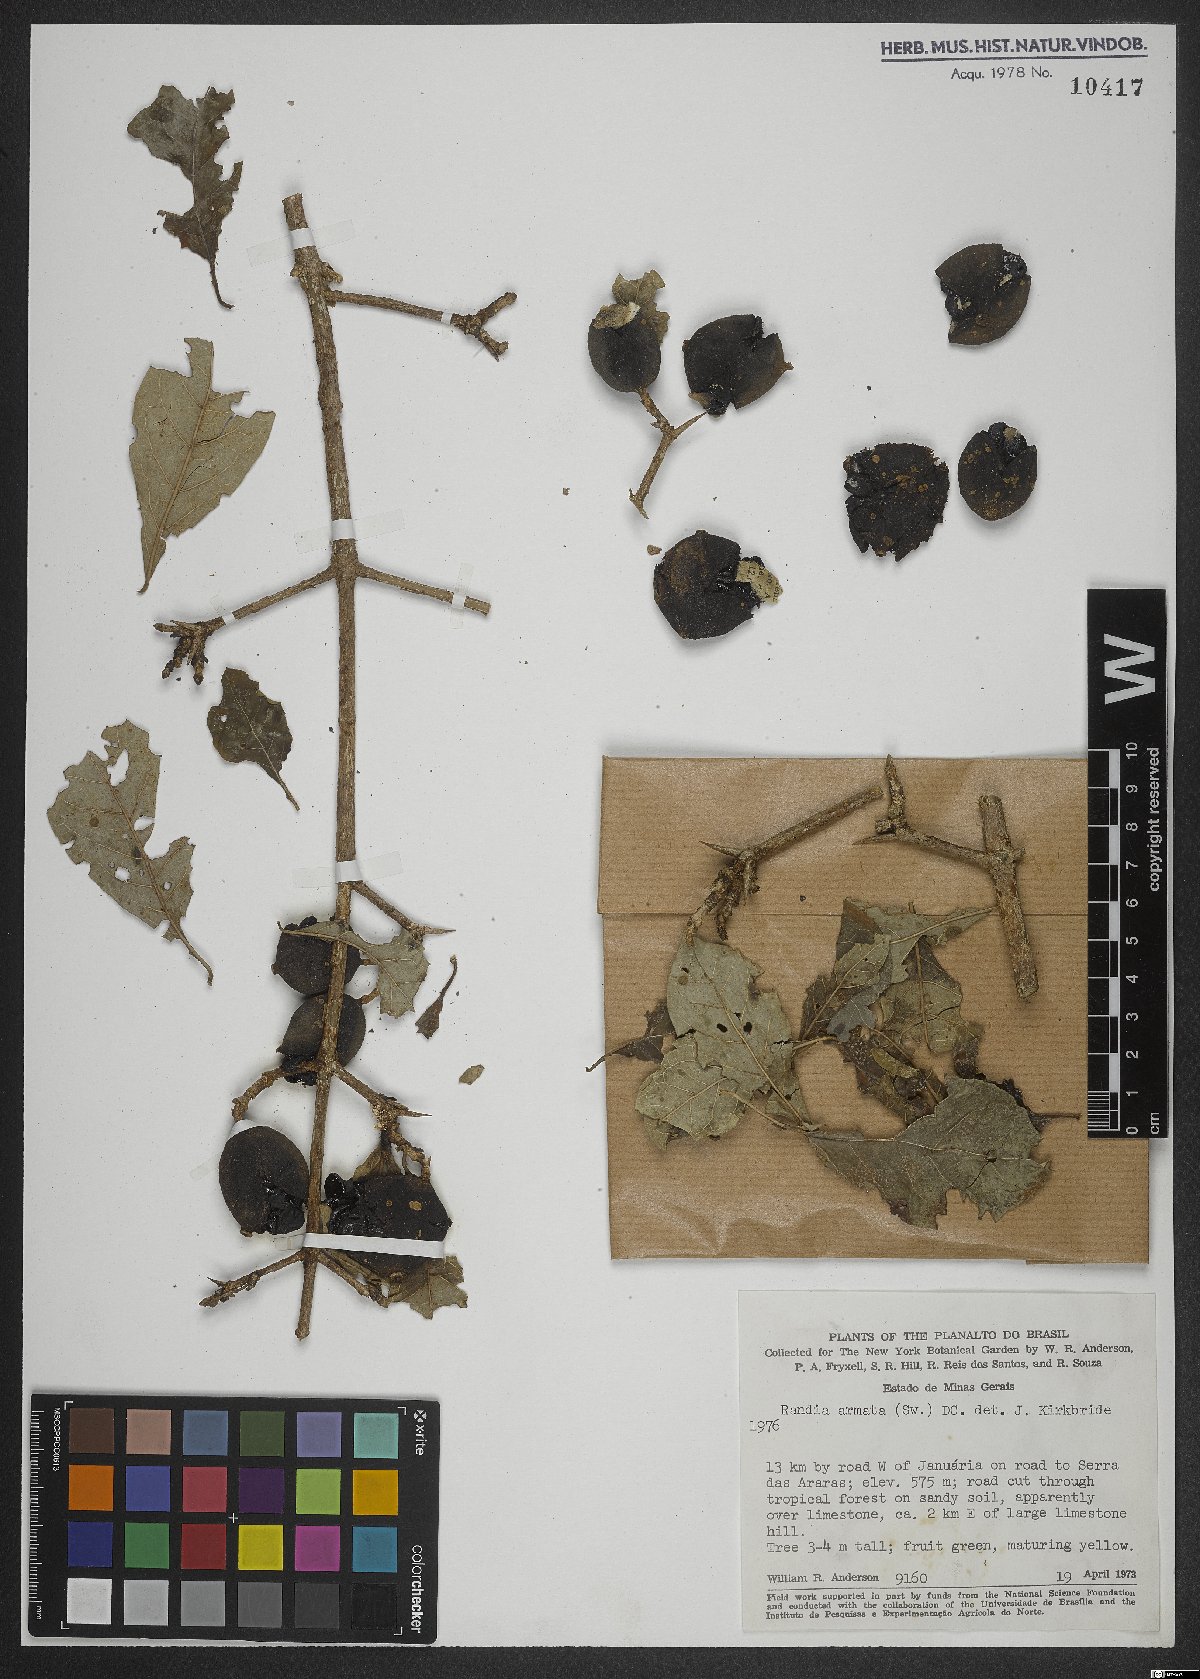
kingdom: Plantae
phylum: Tracheophyta
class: Magnoliopsida
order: Gentianales
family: Rubiaceae
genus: Randia
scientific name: Randia armata
